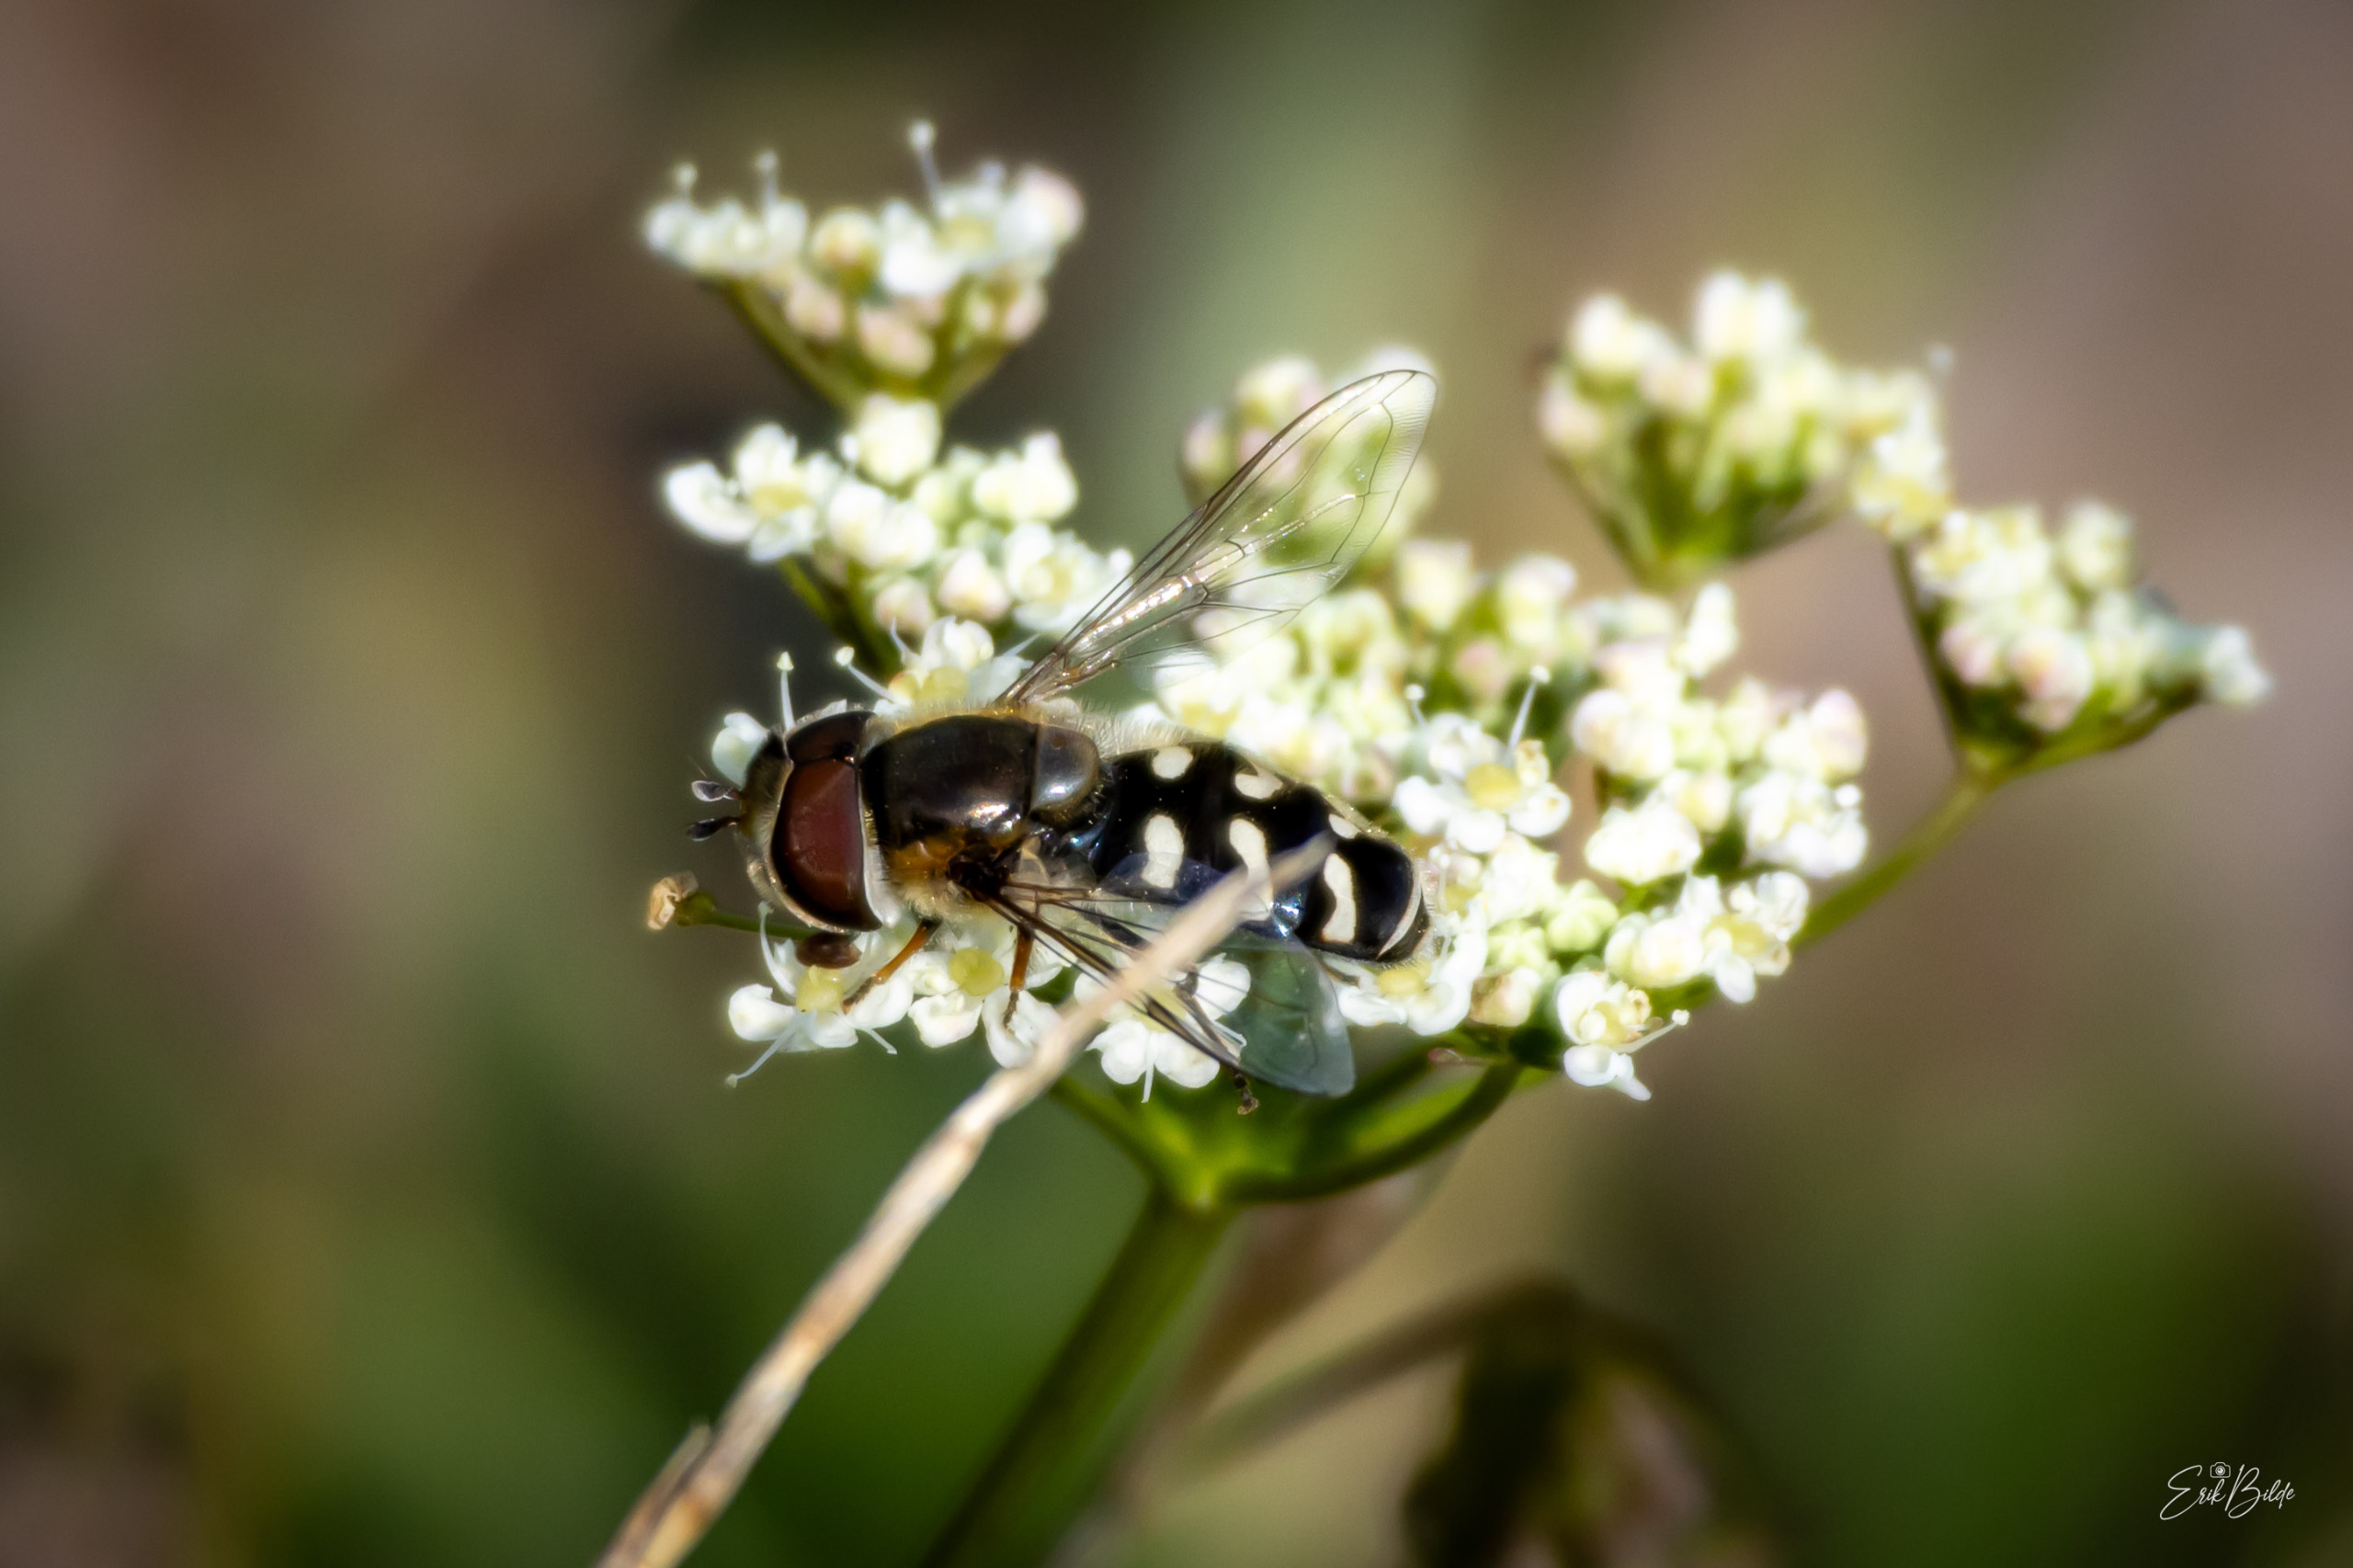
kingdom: Animalia
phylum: Arthropoda
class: Insecta
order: Diptera
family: Syrphidae
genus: Scaeva
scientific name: Scaeva pyrastri
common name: Hvidplettet agersvirreflue
